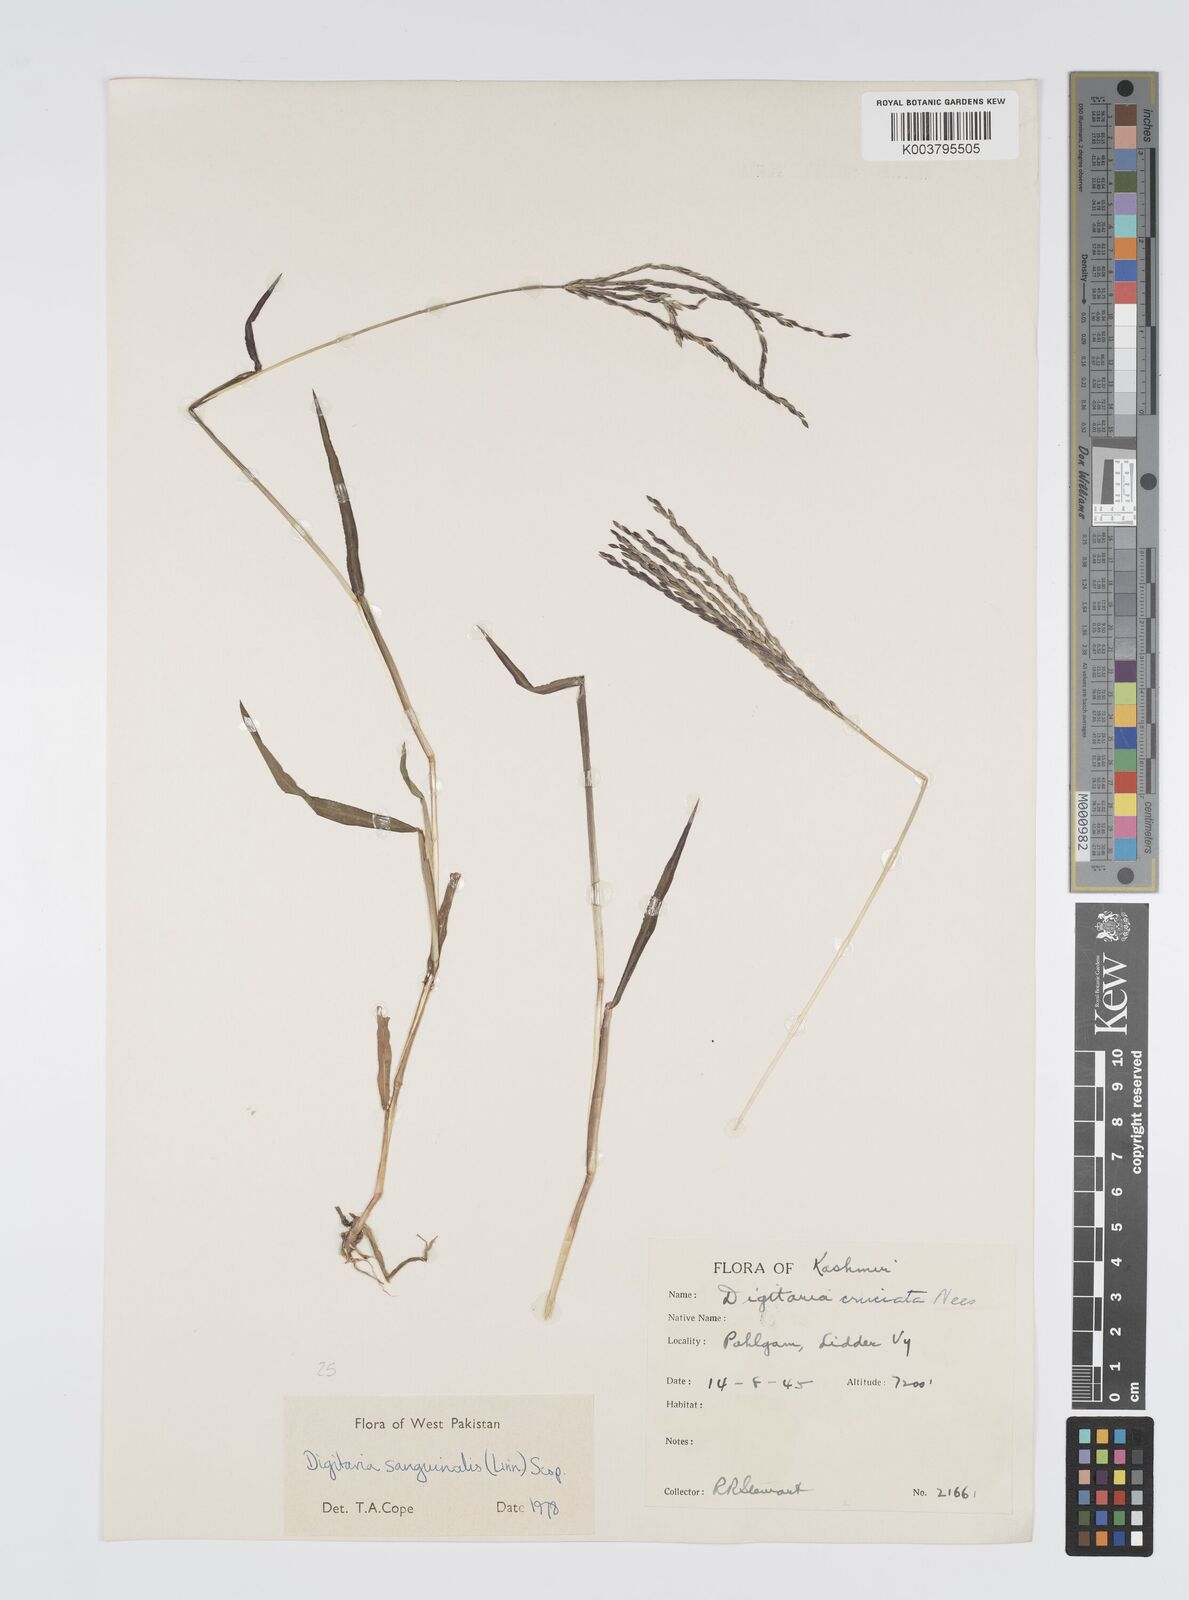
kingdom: Plantae
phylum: Tracheophyta
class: Liliopsida
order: Poales
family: Poaceae
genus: Digitaria
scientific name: Digitaria sanguinalis
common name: Hairy crabgrass
